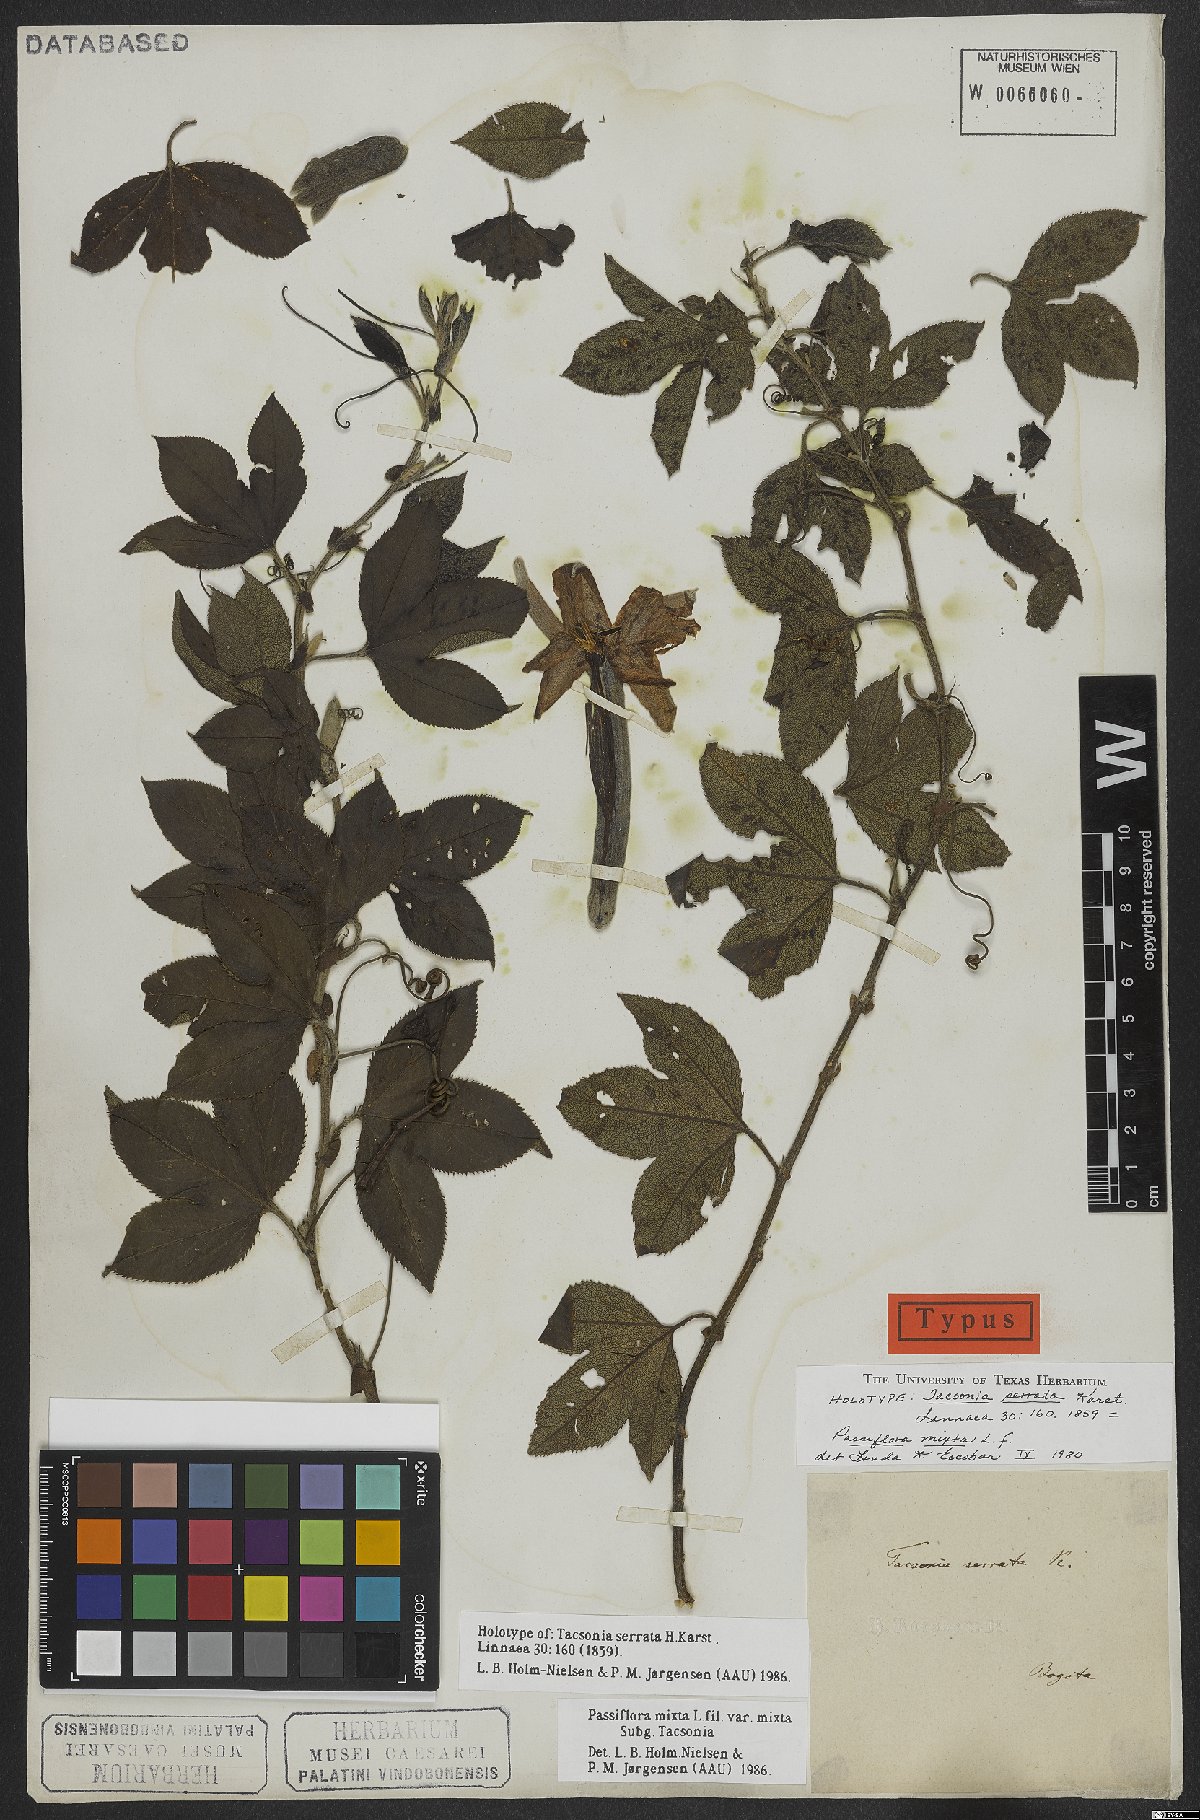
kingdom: Plantae
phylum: Tracheophyta
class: Magnoliopsida
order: Malpighiales
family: Passifloraceae
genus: Passiflora
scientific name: Passiflora mixta
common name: Passion flower
